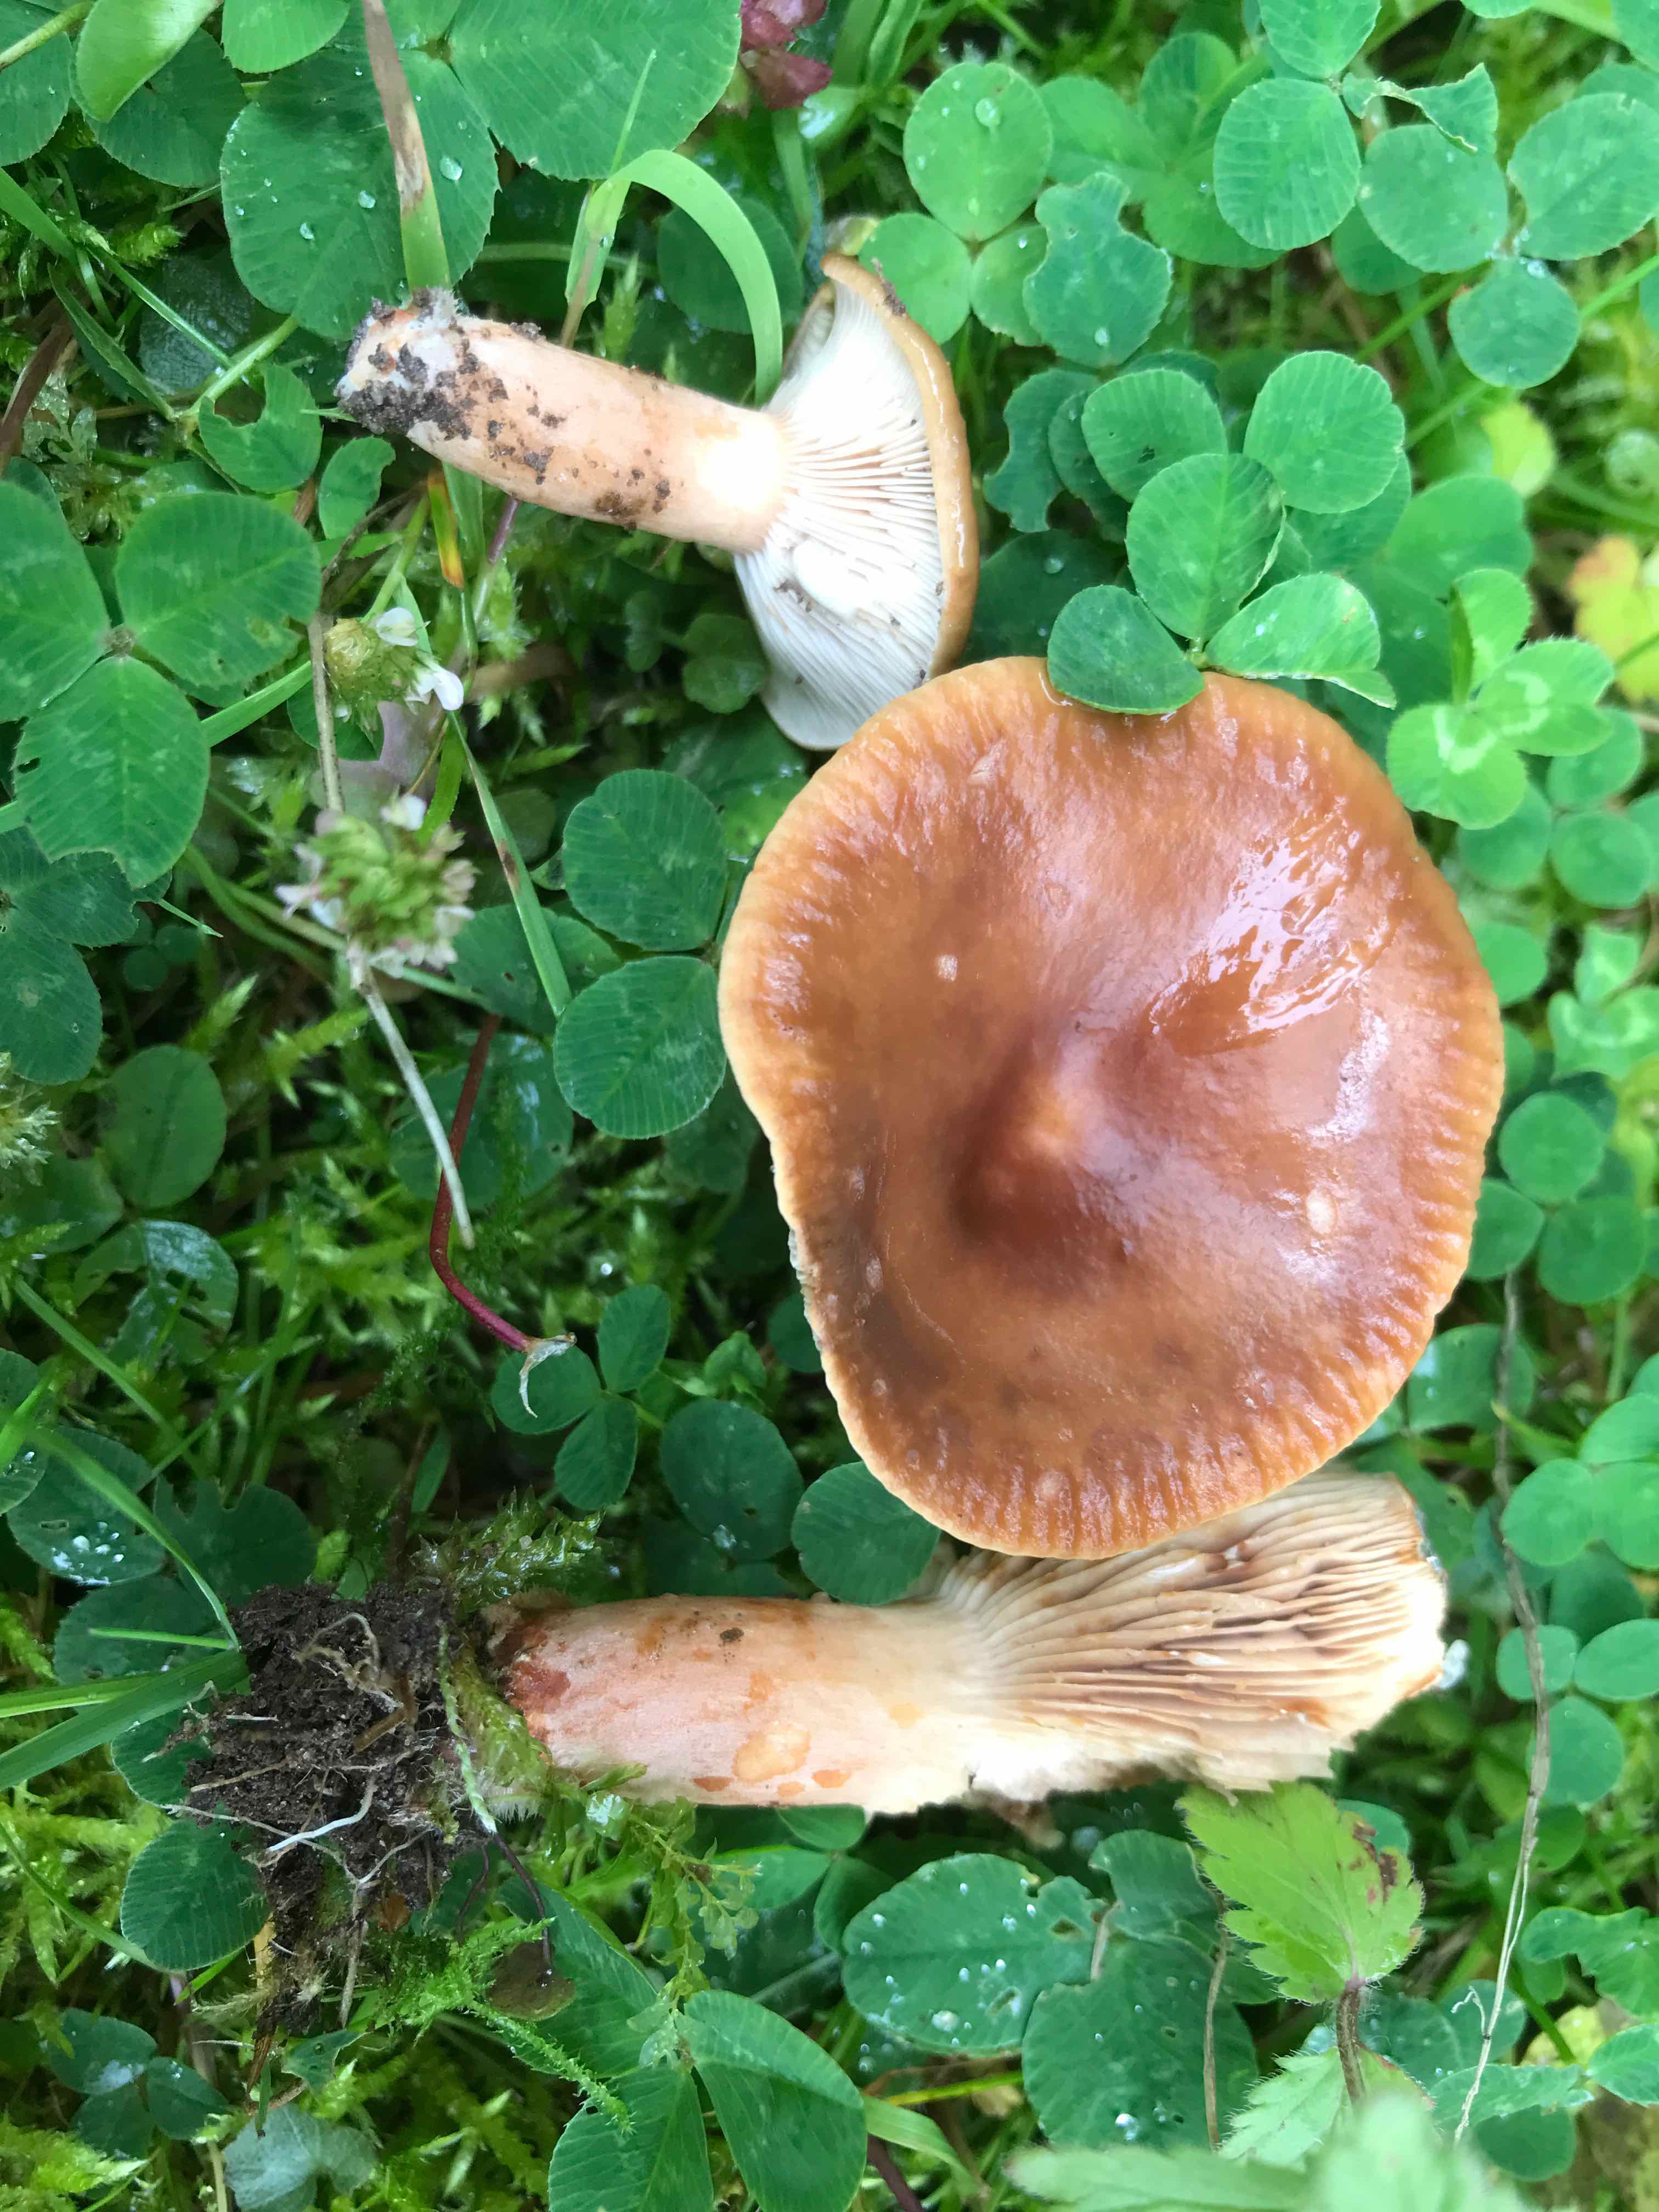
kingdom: Fungi
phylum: Basidiomycota
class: Agaricomycetes
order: Russulales
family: Russulaceae
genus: Lactarius
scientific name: Lactarius
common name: mælkehat
